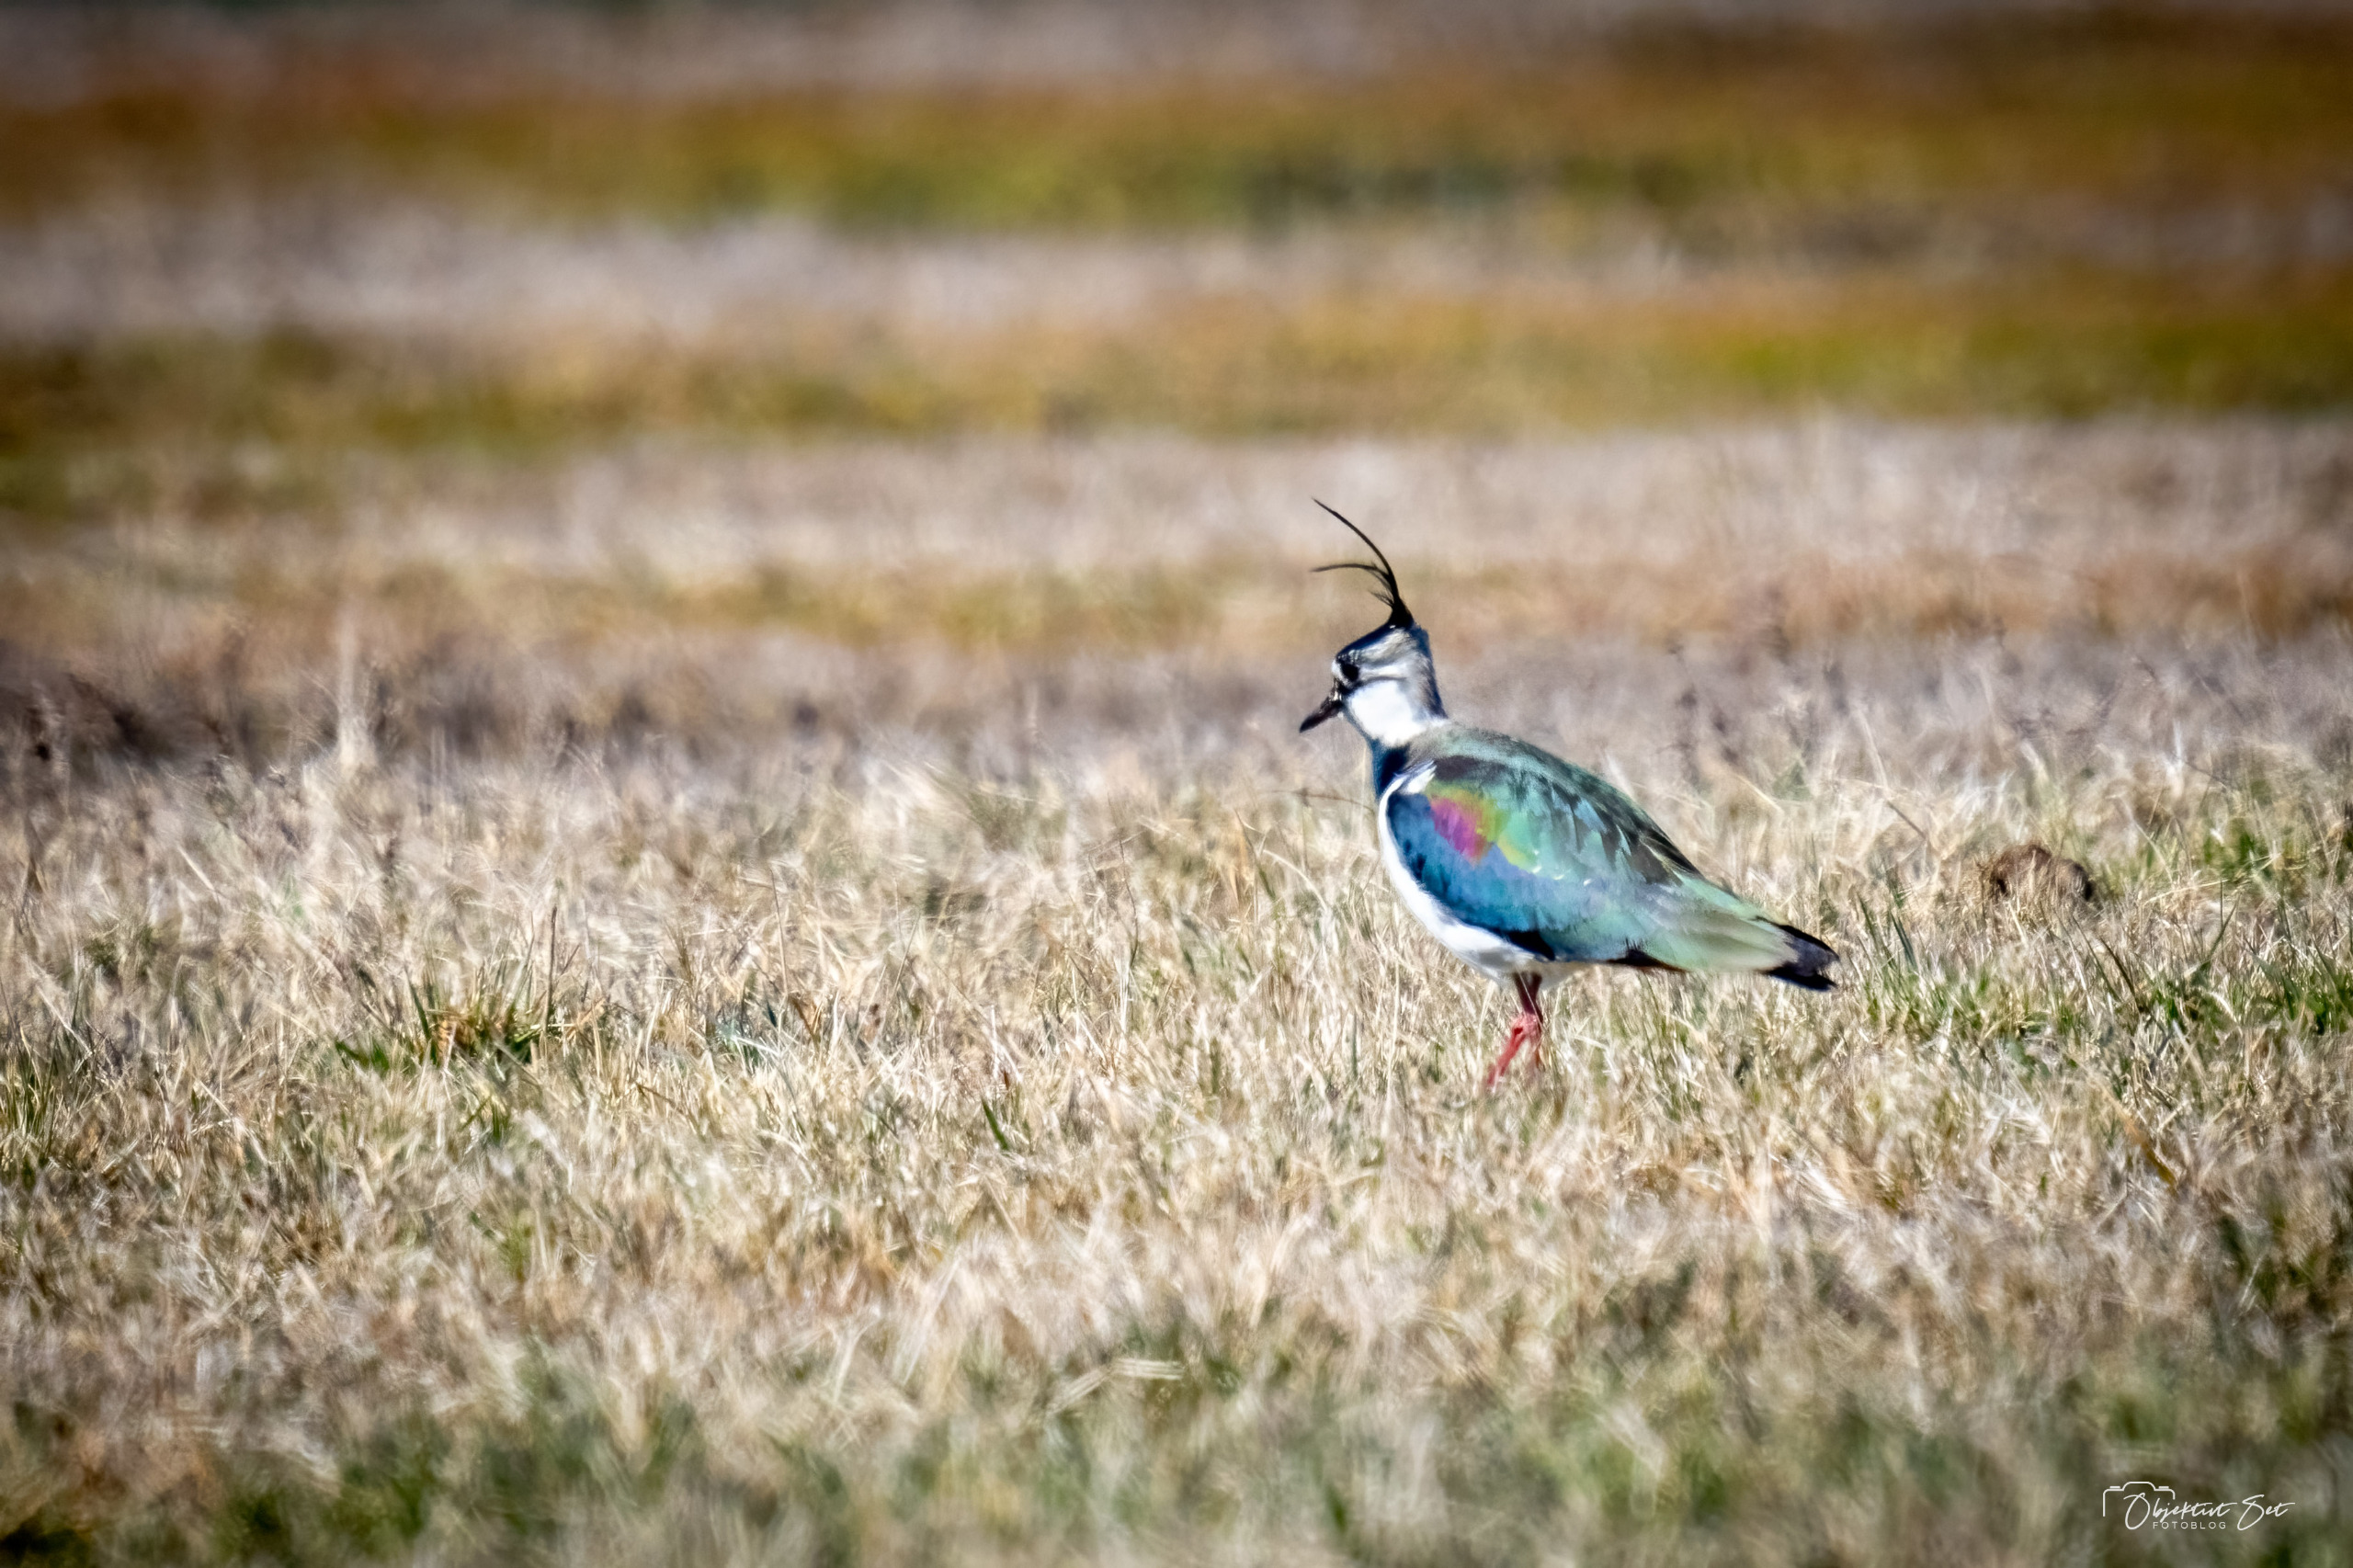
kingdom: Animalia
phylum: Chordata
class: Aves
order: Charadriiformes
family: Charadriidae
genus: Vanellus
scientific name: Vanellus vanellus
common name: Vibe
